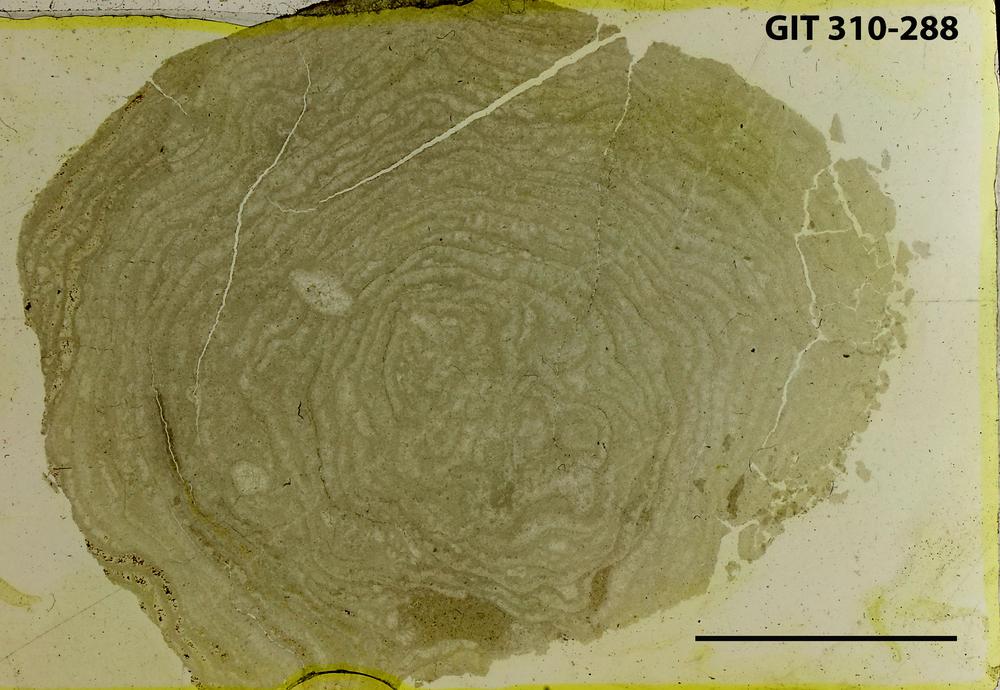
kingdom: Animalia
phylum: Porifera
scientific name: Porifera
